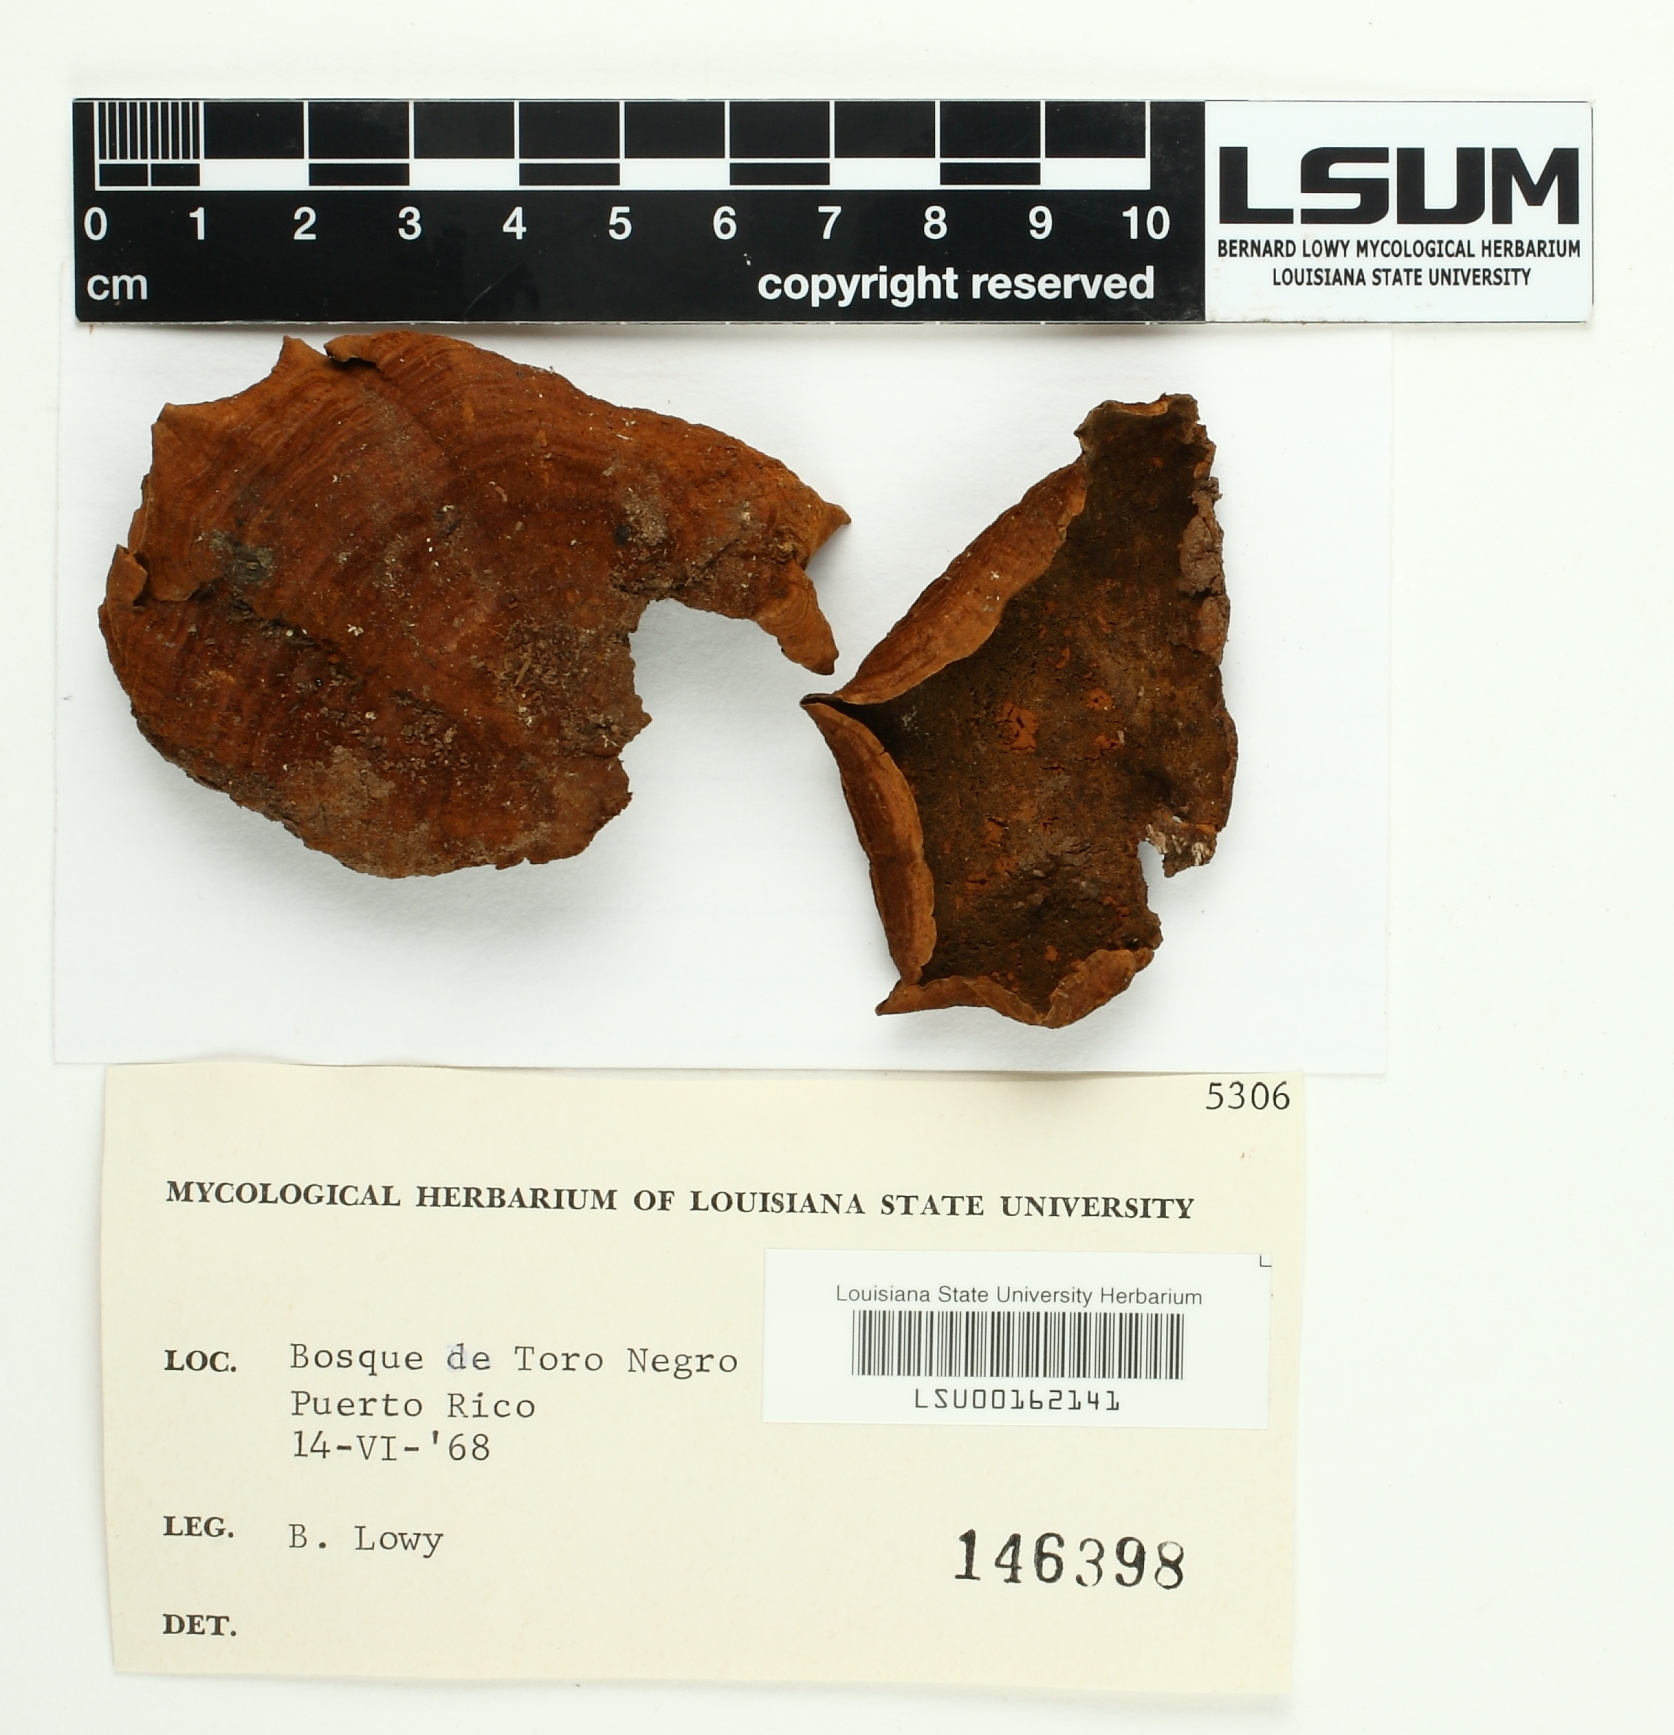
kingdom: Fungi
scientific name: Fungi
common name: Fungi
